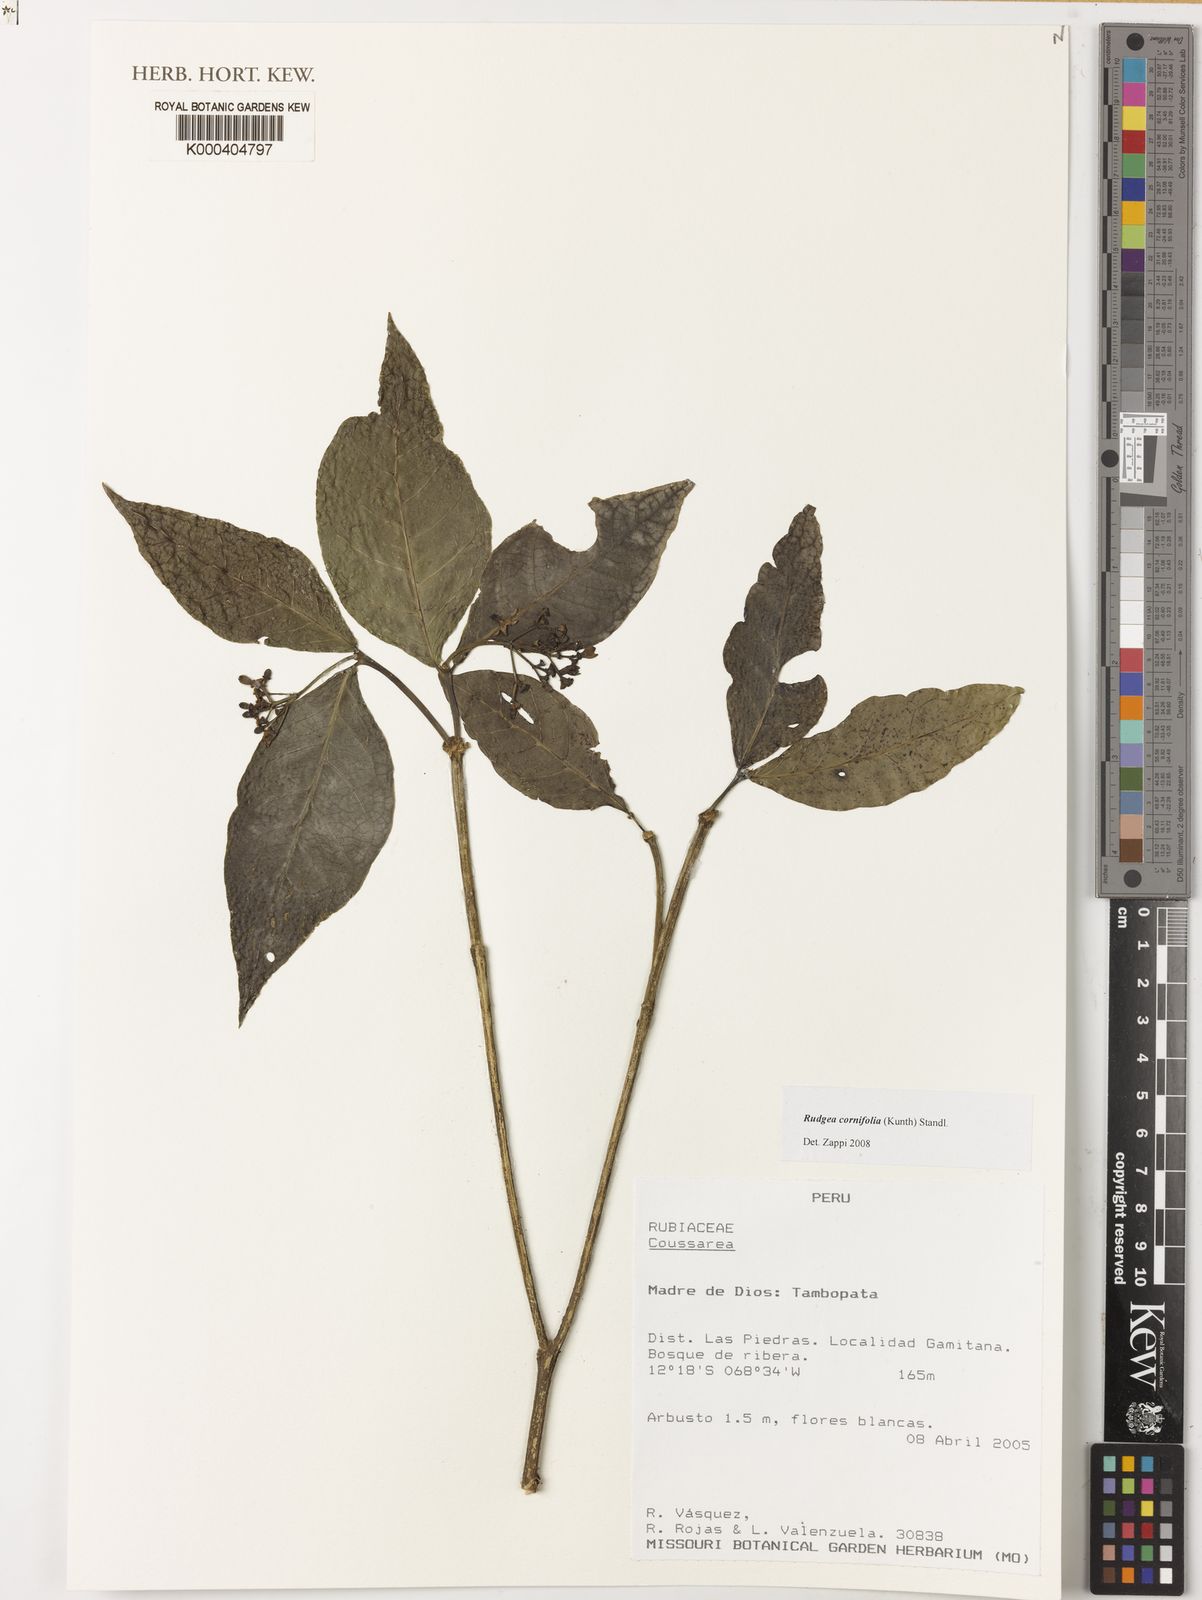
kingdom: Plantae
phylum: Tracheophyta
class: Magnoliopsida
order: Gentianales
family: Rubiaceae
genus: Rudgea
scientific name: Rudgea cornifolia
